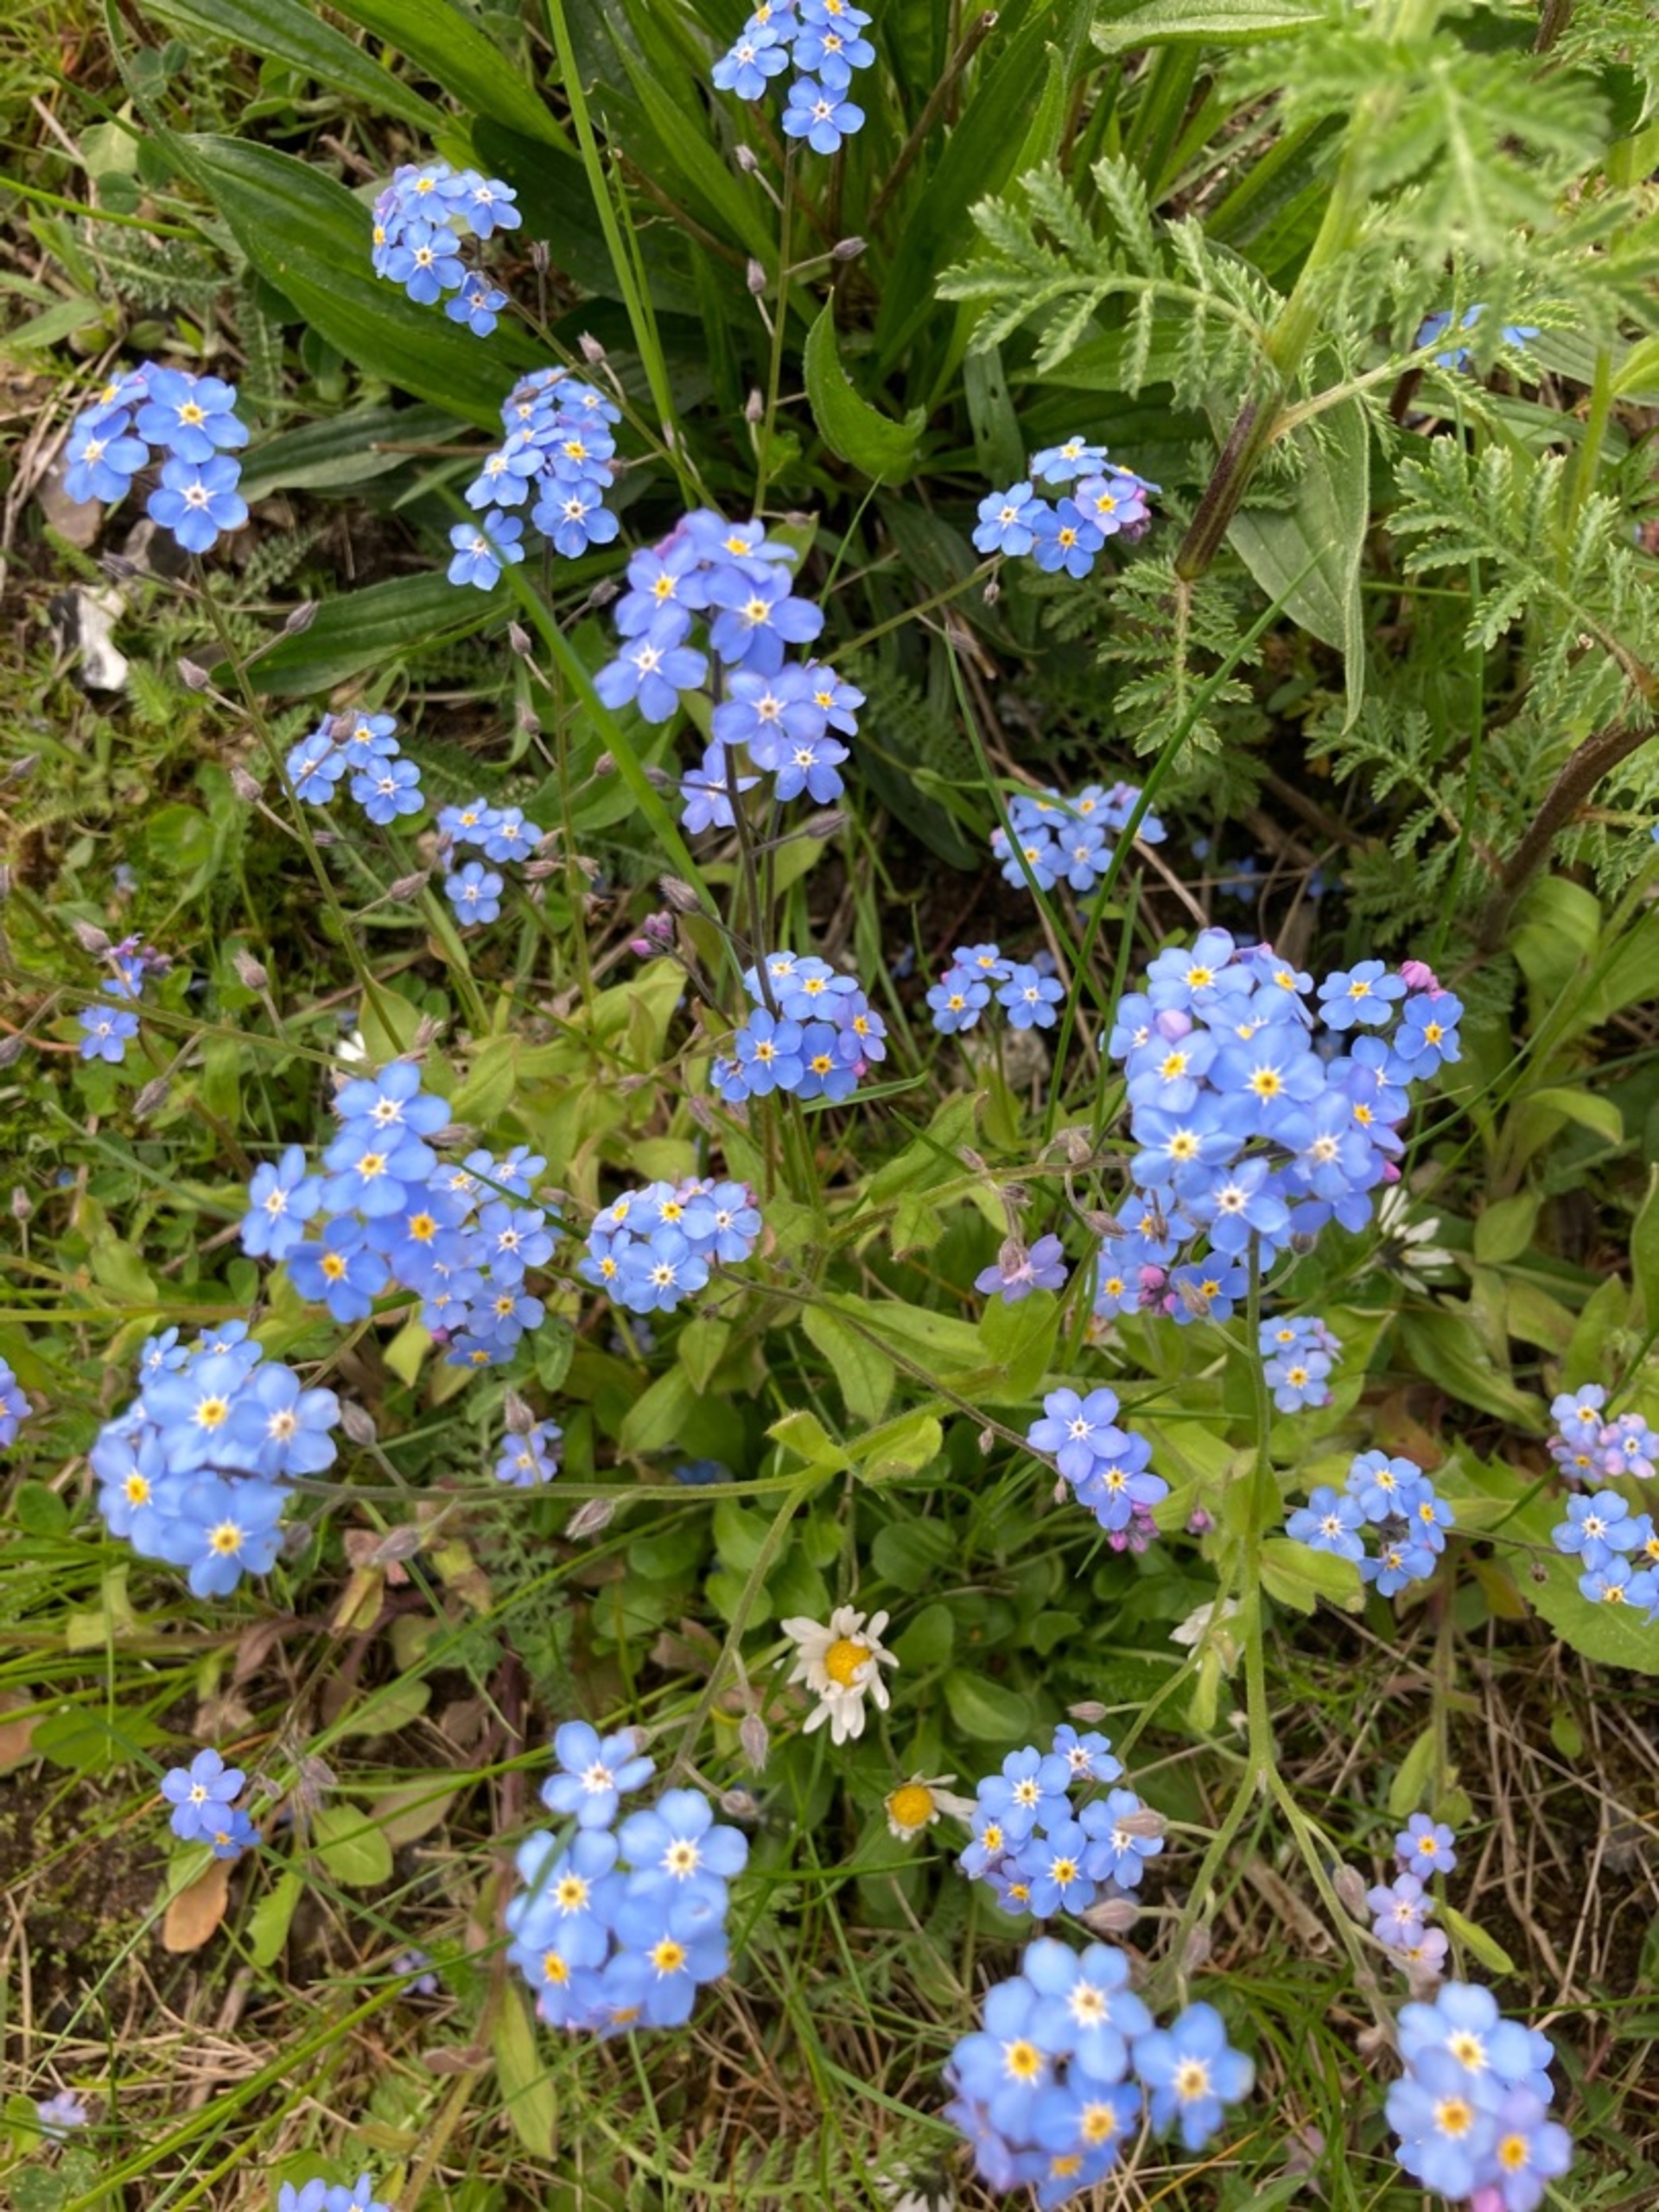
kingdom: Plantae
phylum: Tracheophyta
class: Magnoliopsida
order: Boraginales
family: Boraginaceae
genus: Myosotis
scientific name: Myosotis sylvatica
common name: Skov-forglemmigej
